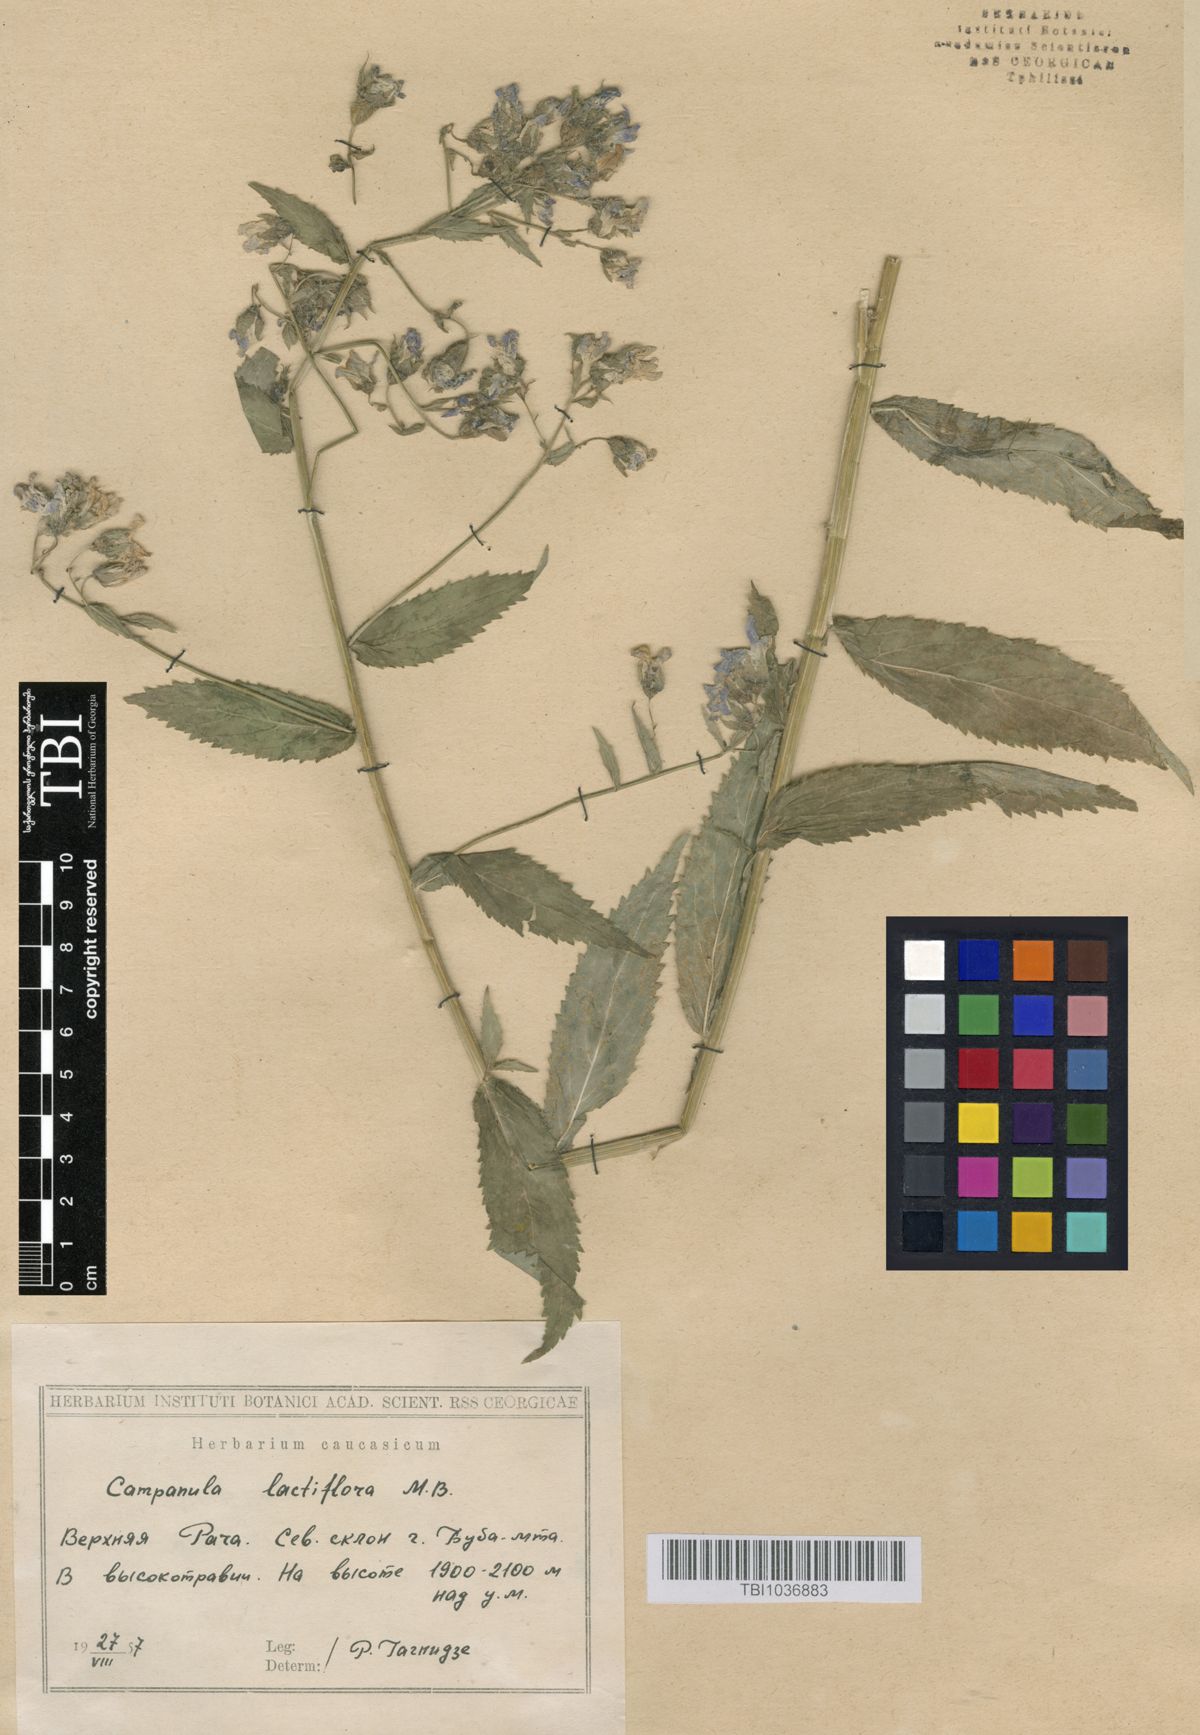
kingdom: Plantae
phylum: Tracheophyta
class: Magnoliopsida
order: Asterales
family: Campanulaceae
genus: Campanula
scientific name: Campanula lactiflora
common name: Milky bellflower
